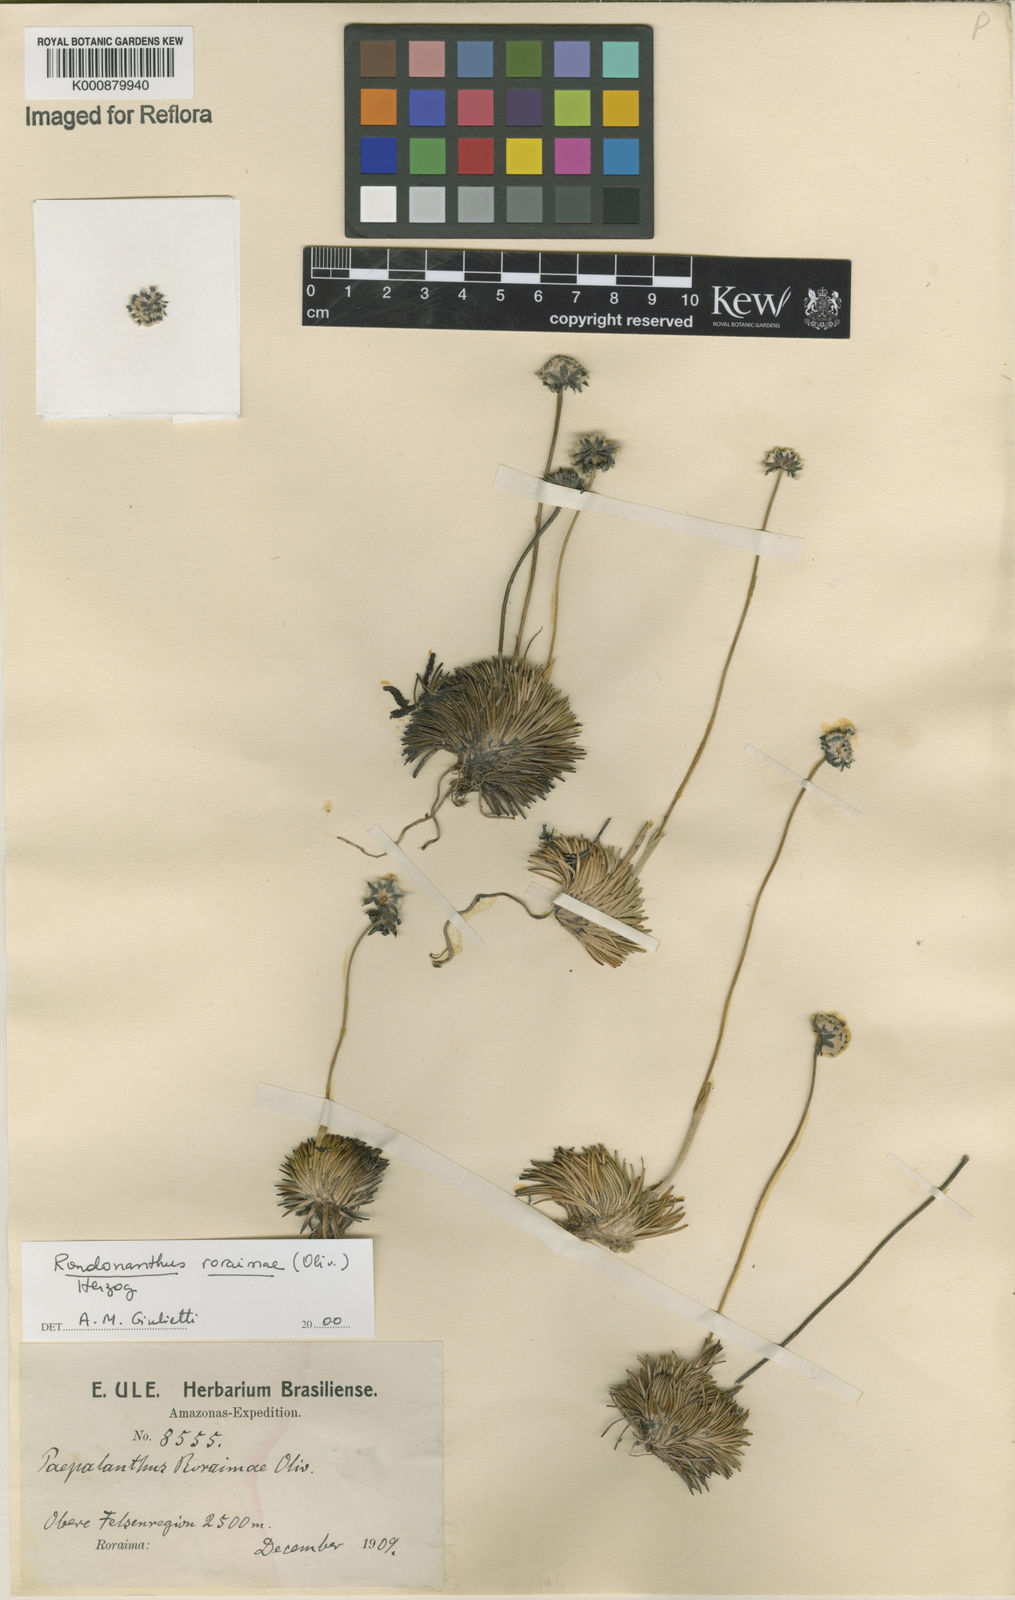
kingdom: Plantae
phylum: Tracheophyta
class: Liliopsida
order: Poales
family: Eriocaulaceae
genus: Rondonanthus
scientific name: Rondonanthus roraimae
